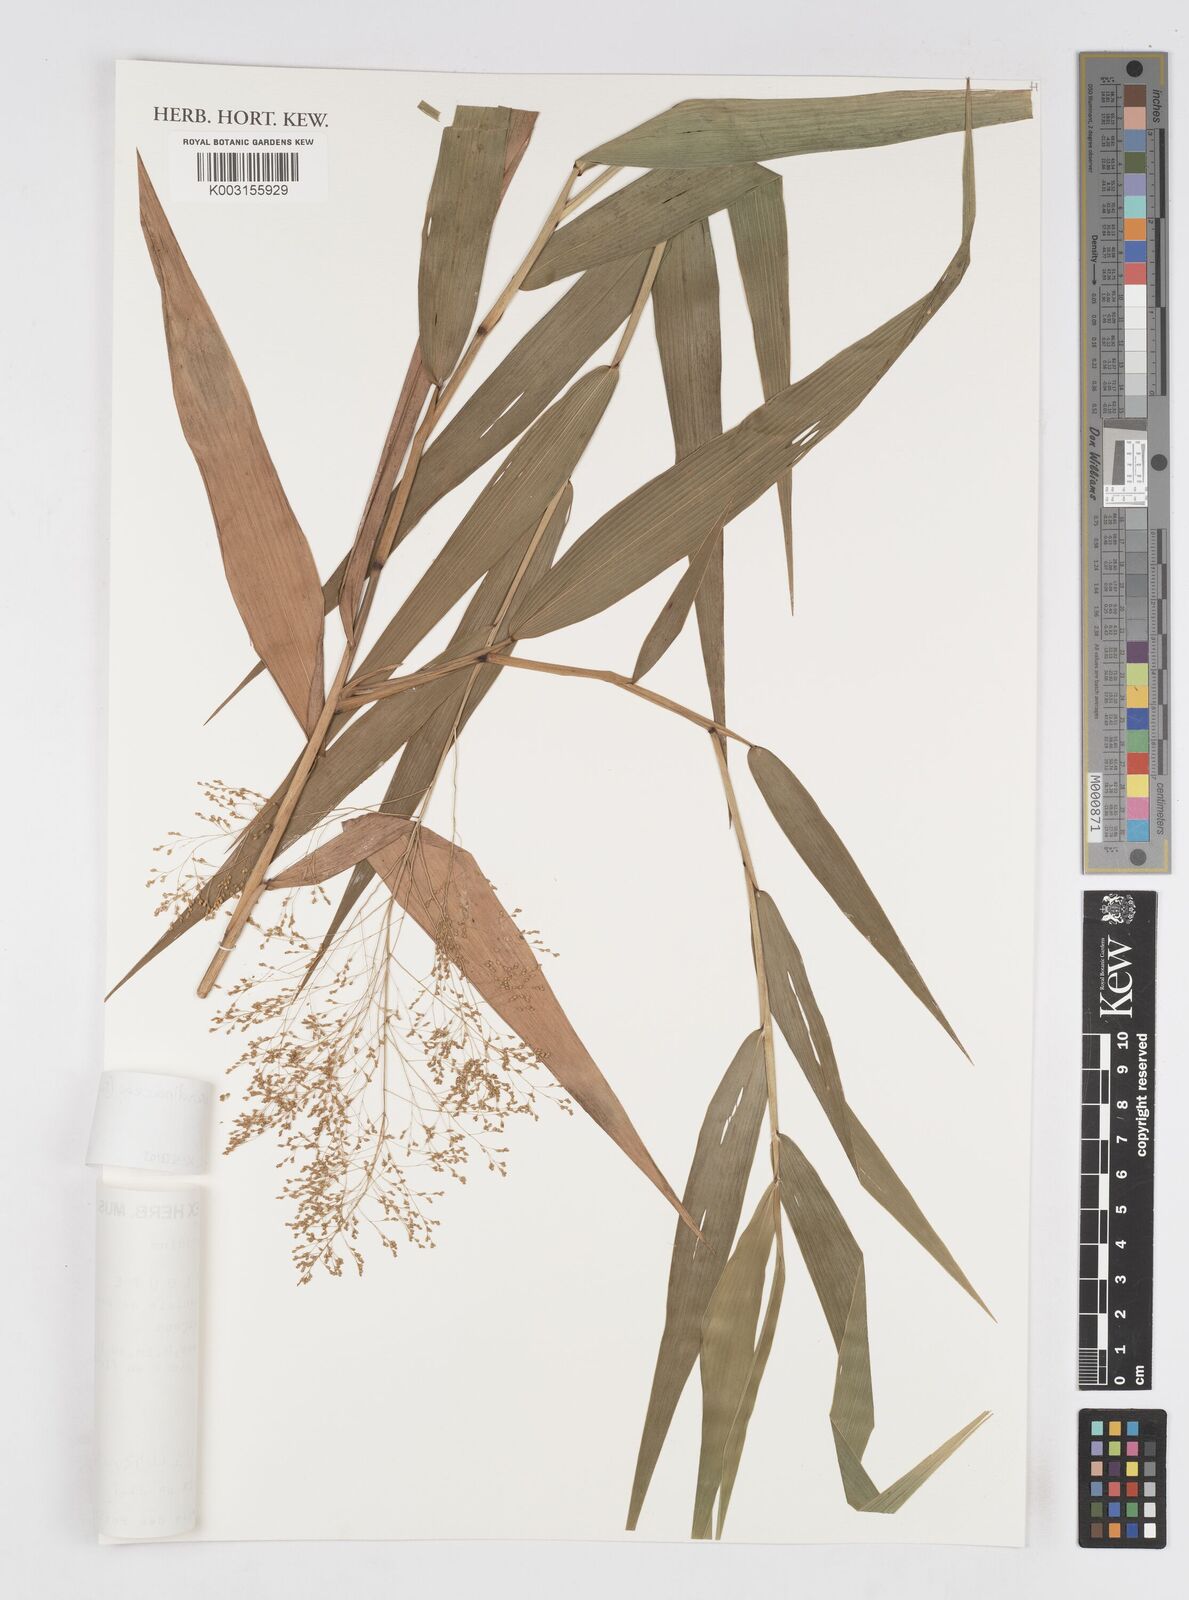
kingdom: Plantae
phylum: Tracheophyta
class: Liliopsida
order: Poales
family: Poaceae
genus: Isachne
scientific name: Isachne arundinacea
